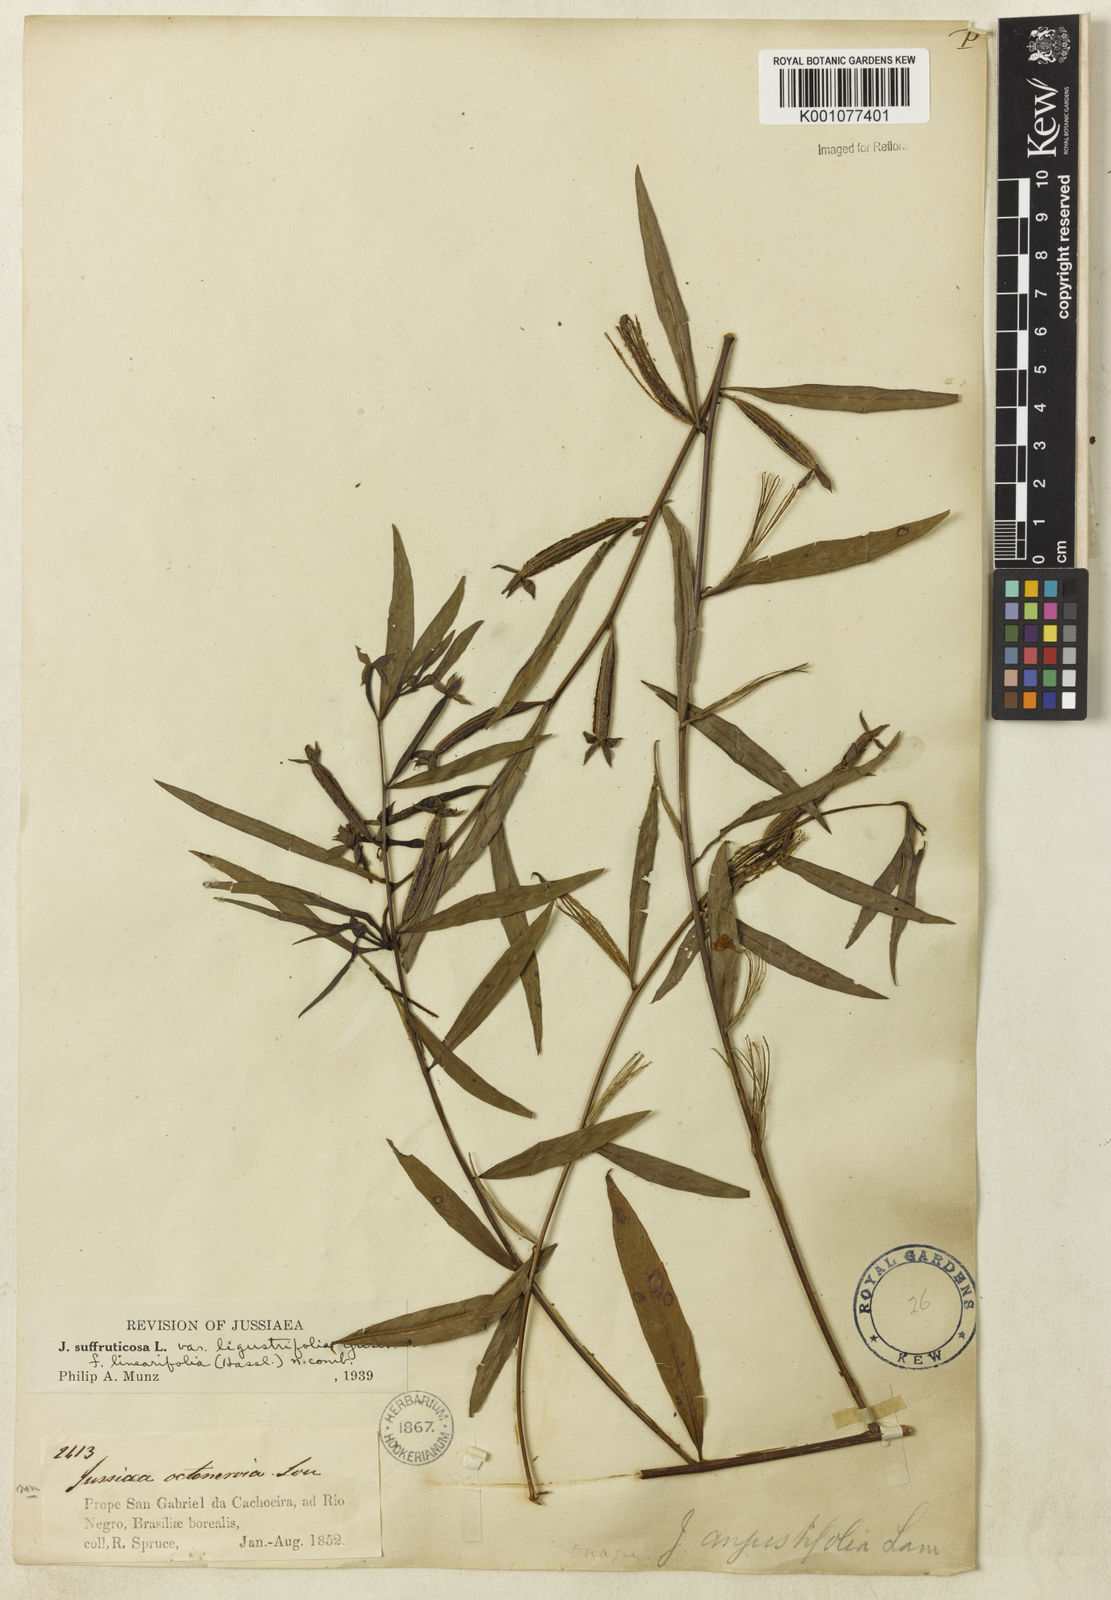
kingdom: Plantae
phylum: Tracheophyta
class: Magnoliopsida
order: Myrtales
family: Onagraceae
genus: Ludwigia
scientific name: Ludwigia octovalvis
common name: Water-primrose
